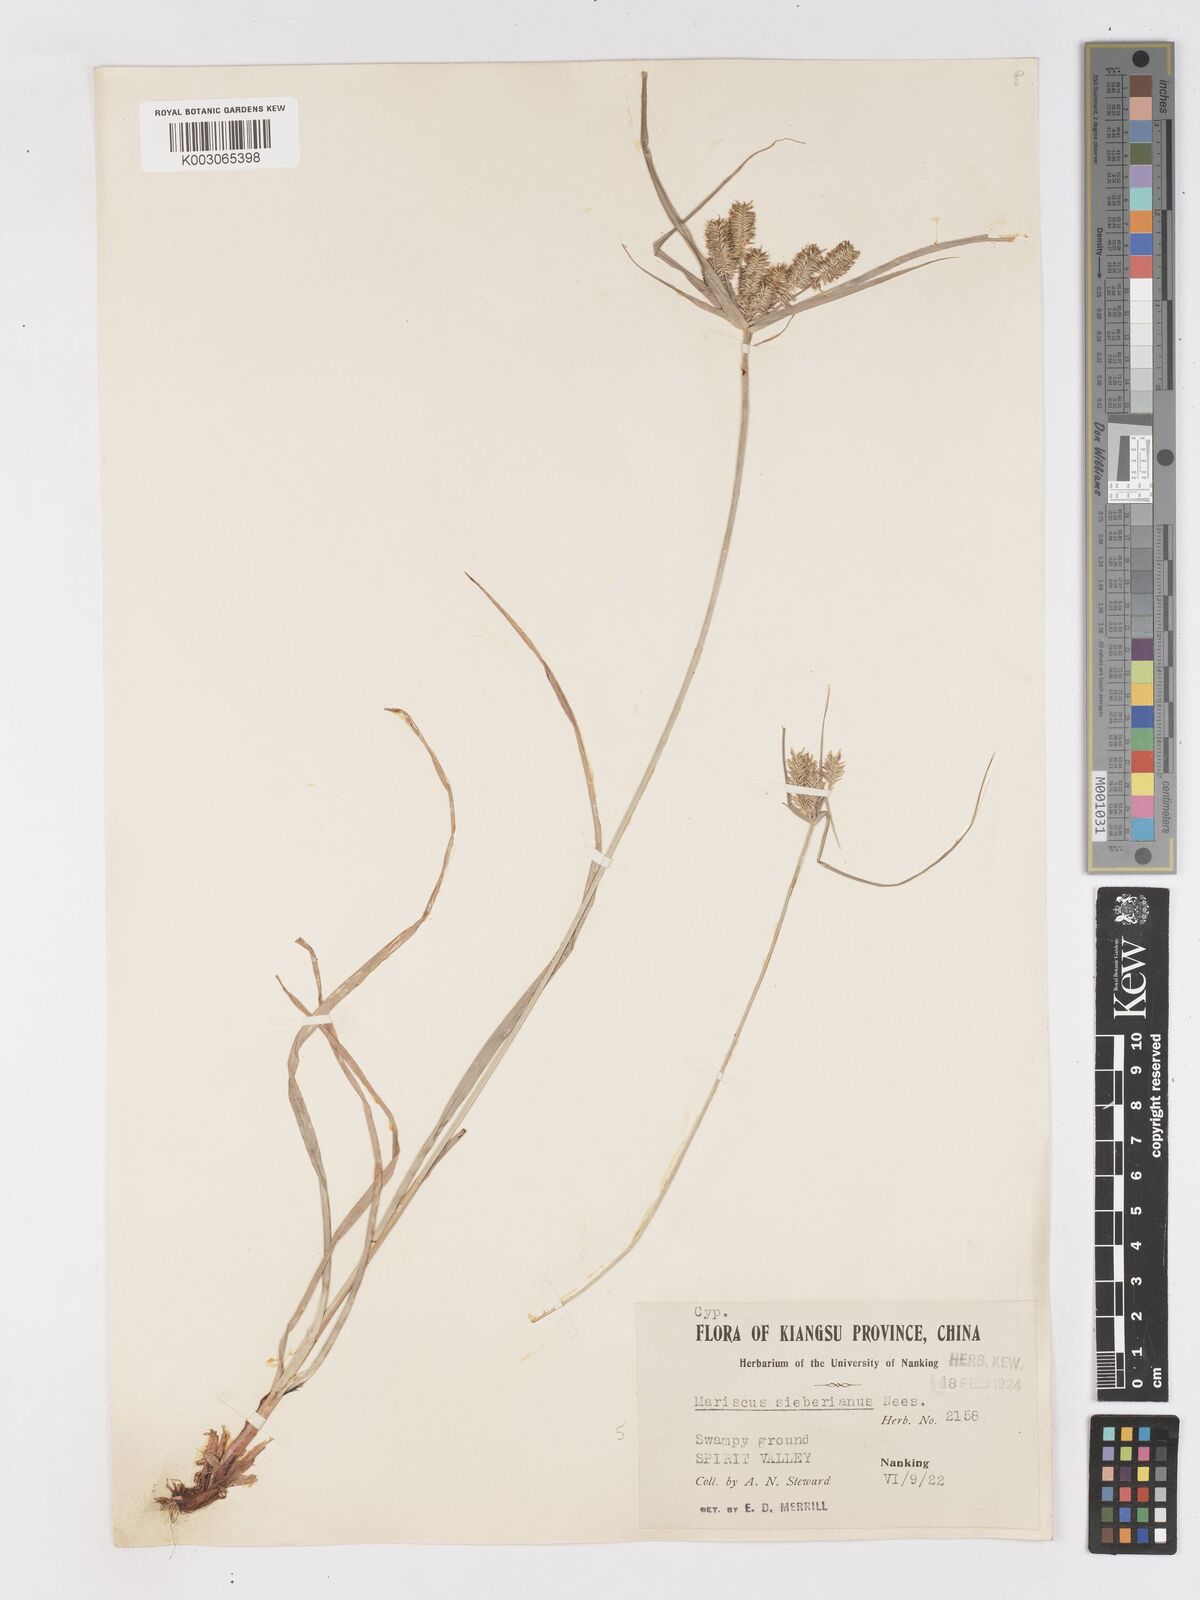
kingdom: Plantae
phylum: Tracheophyta
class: Liliopsida
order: Poales
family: Cyperaceae
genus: Cyperus
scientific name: Cyperus cyperoides
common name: Pacific island flat sedge
